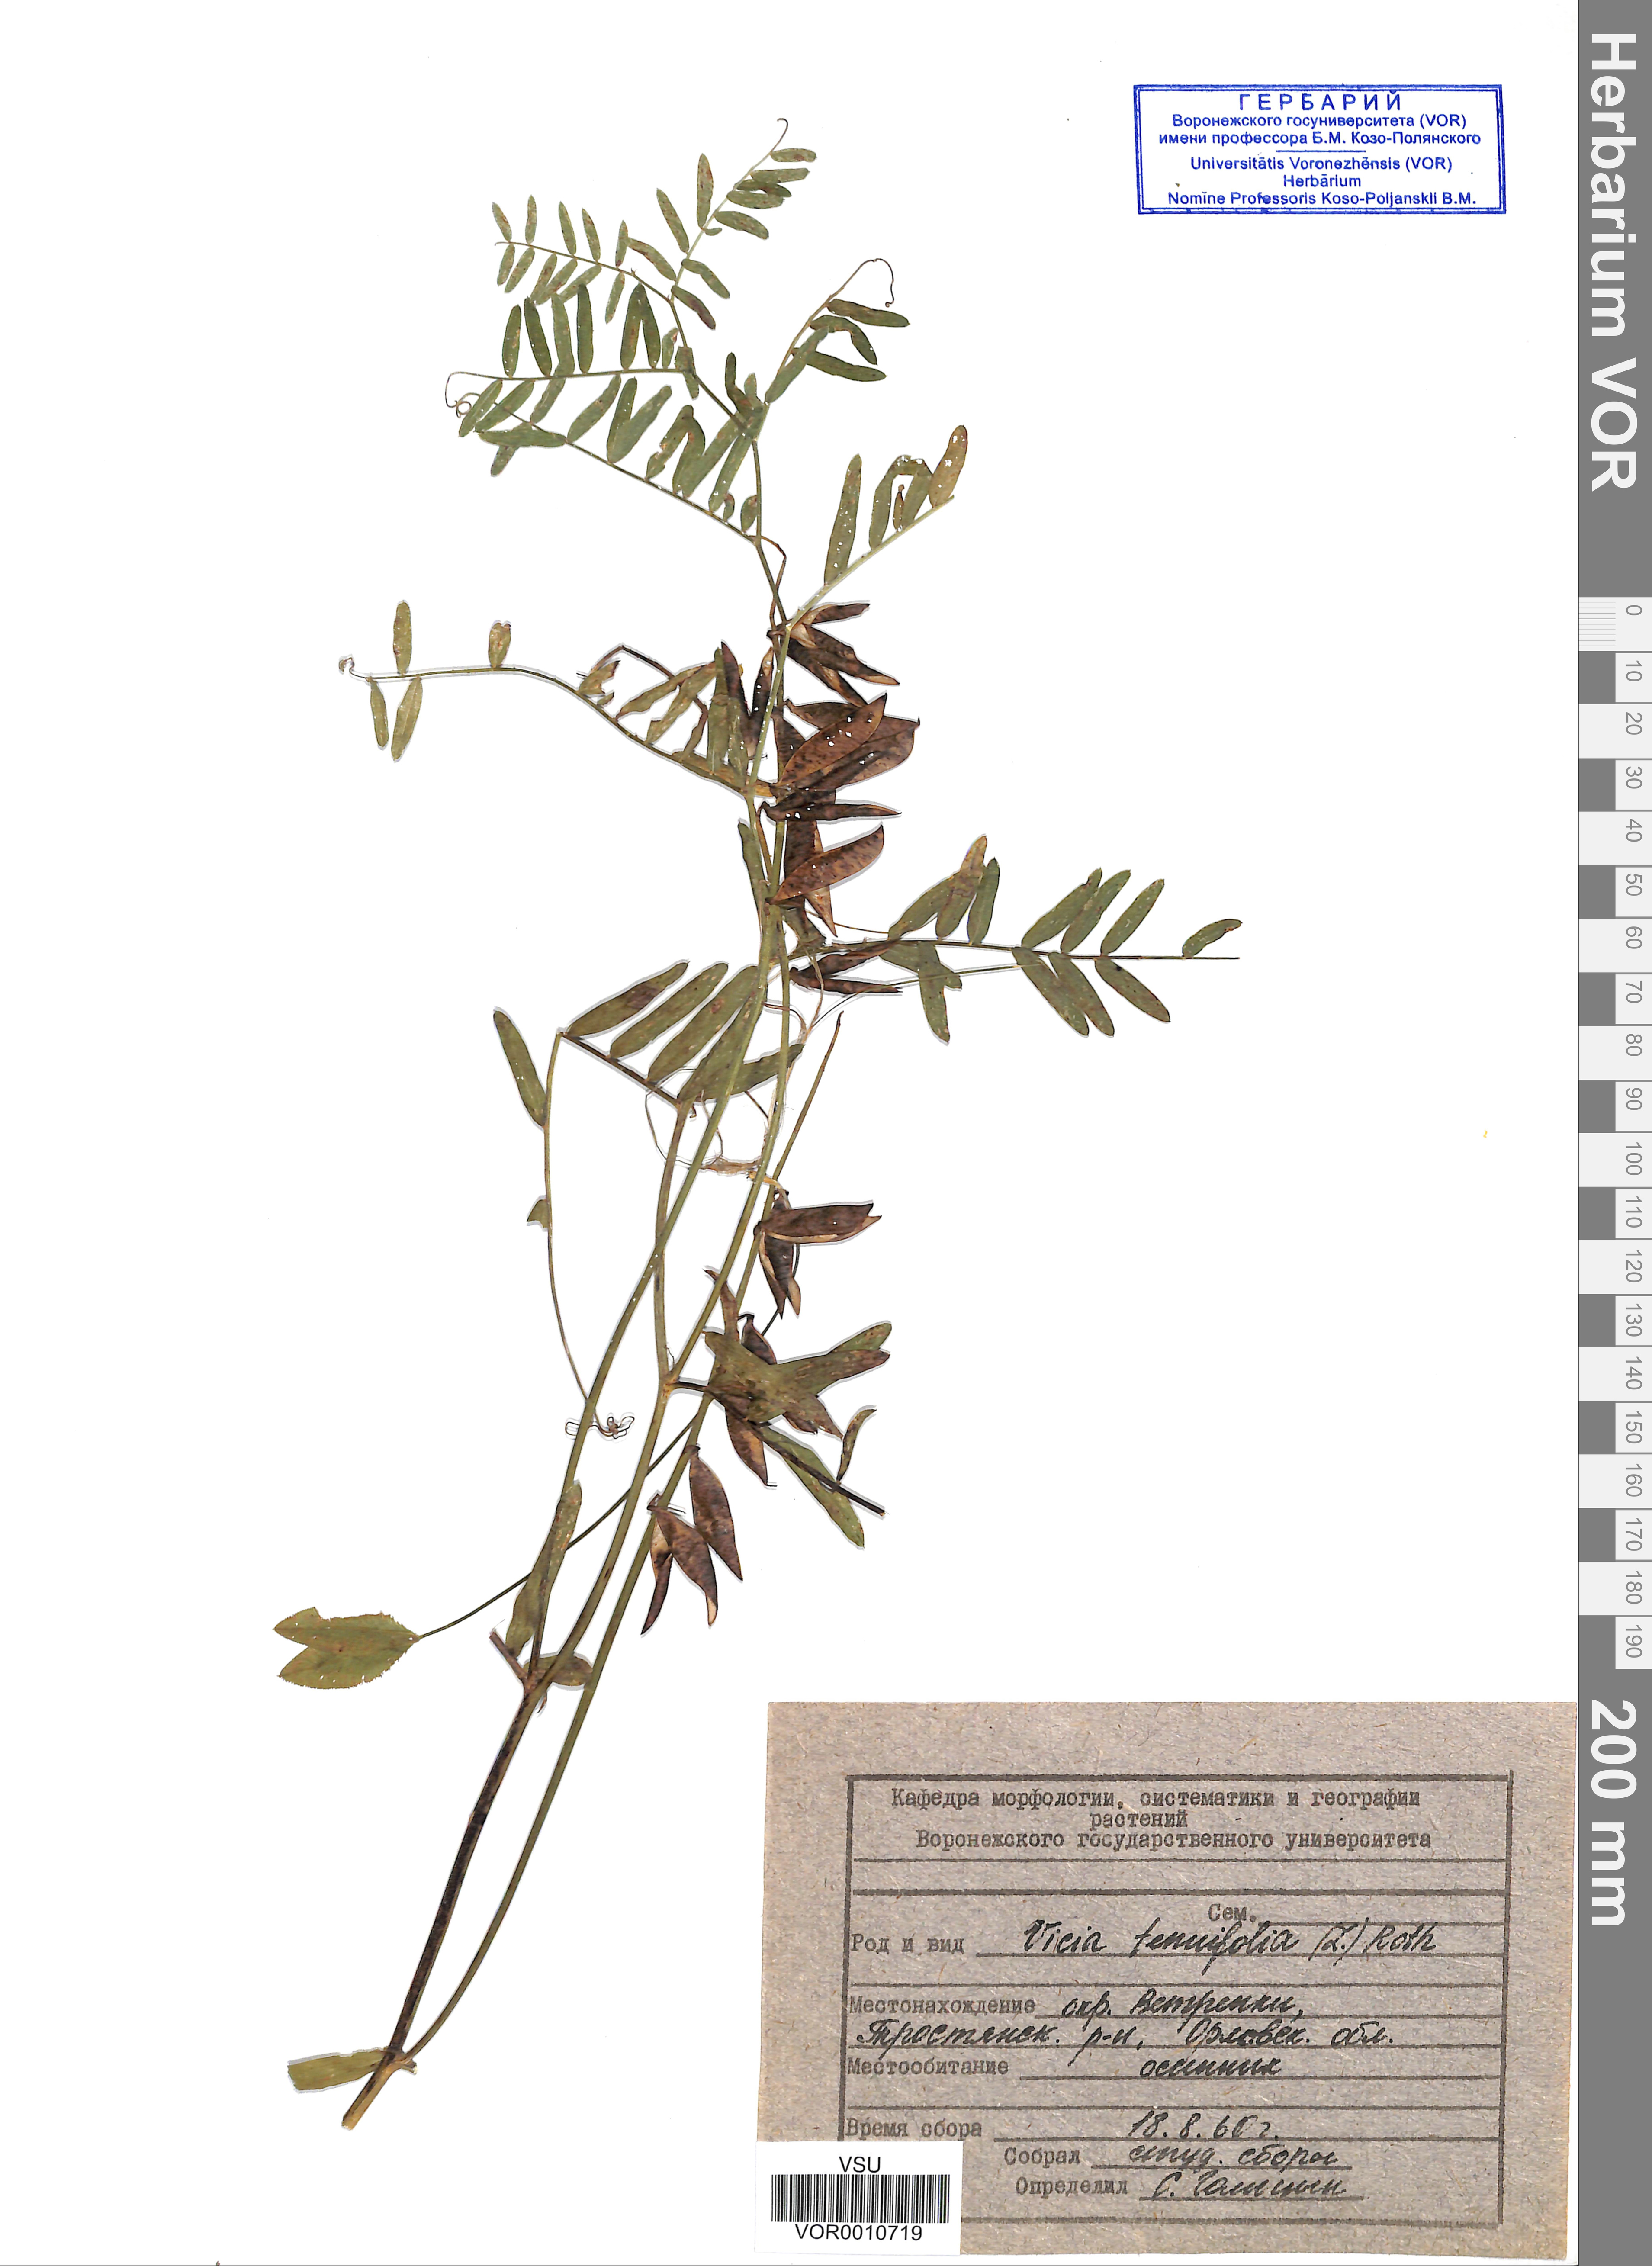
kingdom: Plantae
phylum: Tracheophyta
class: Magnoliopsida
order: Fabales
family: Fabaceae
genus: Vicia
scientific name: Vicia tenuifolia
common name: Fine-leaved vetch
